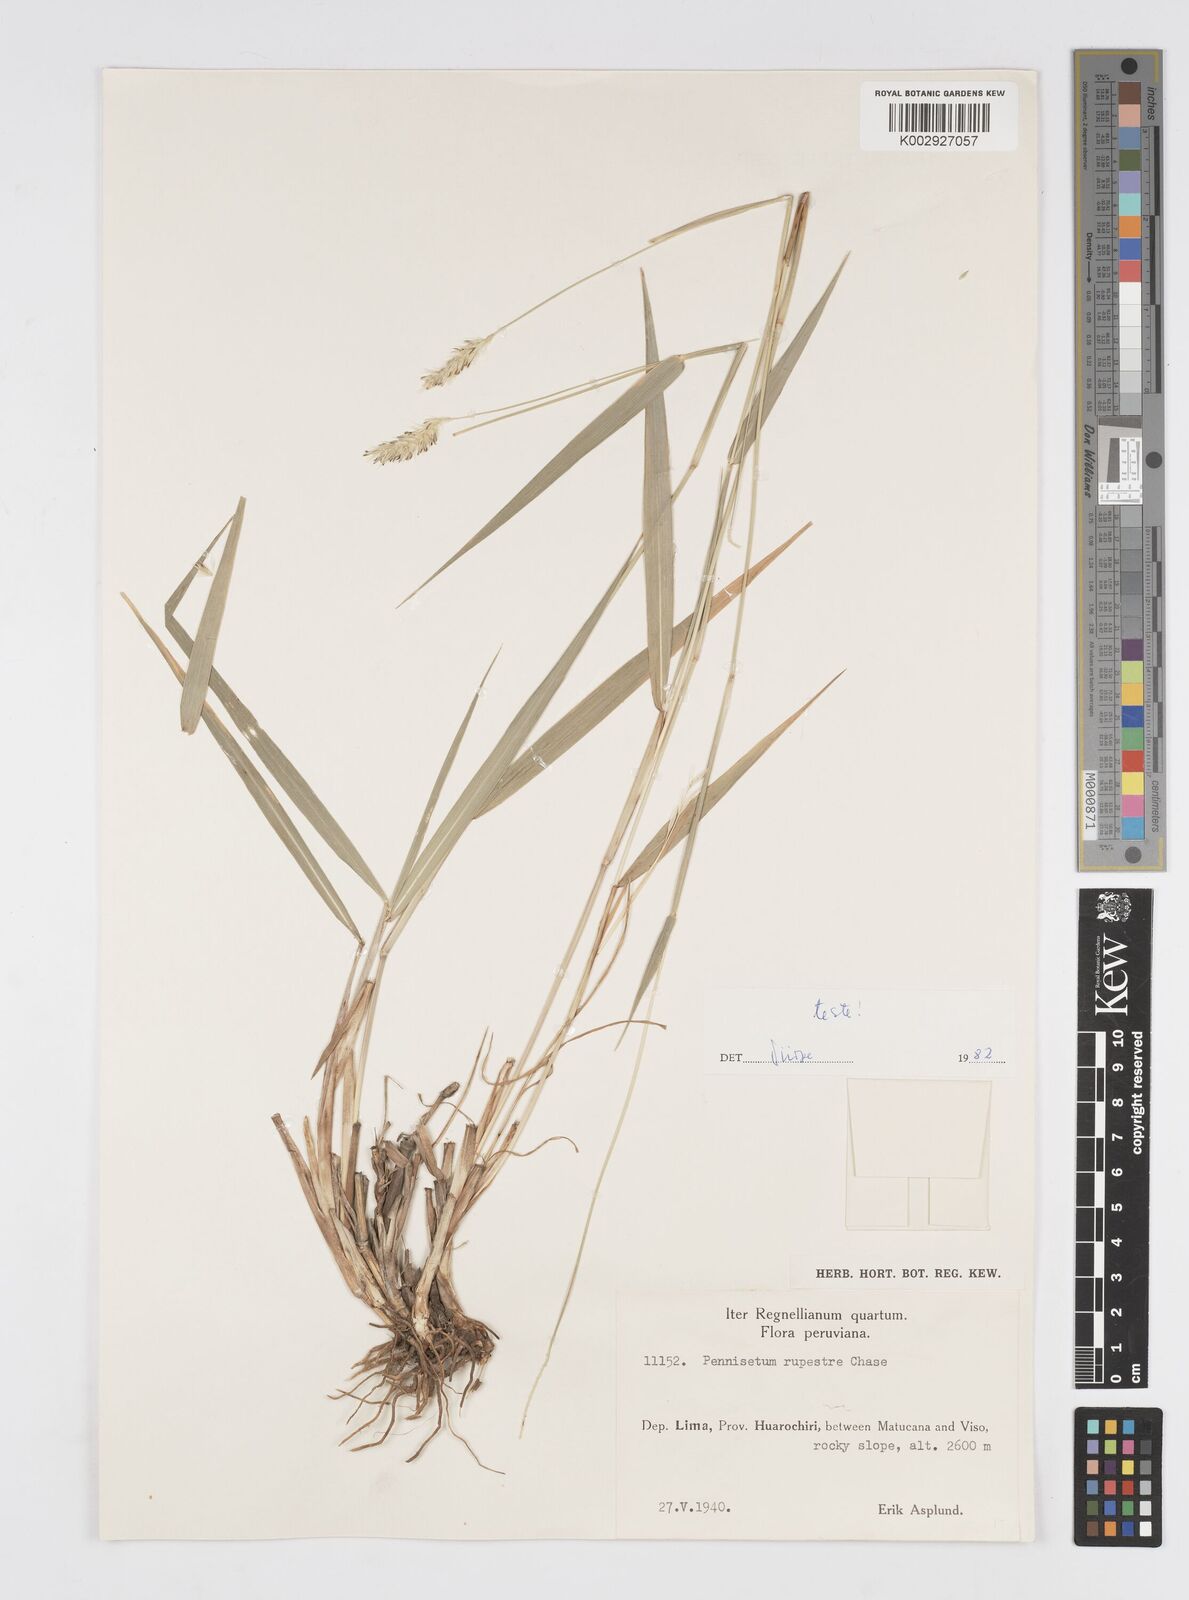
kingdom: Plantae
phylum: Tracheophyta
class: Liliopsida
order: Poales
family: Poaceae
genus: Cenchrus
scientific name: Cenchrus rupestris
